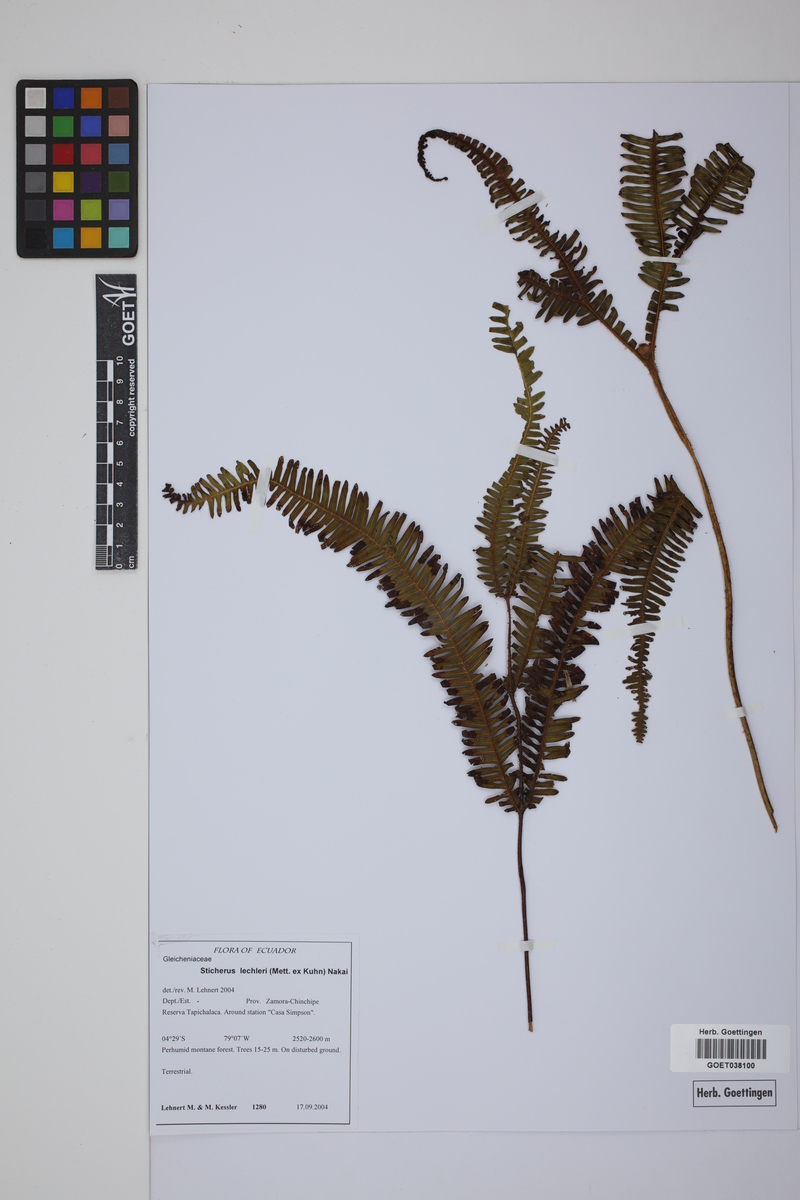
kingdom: Plantae
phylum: Tracheophyta
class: Polypodiopsida
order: Gleicheniales
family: Gleicheniaceae
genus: Sticherus
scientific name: Sticherus lechleri
